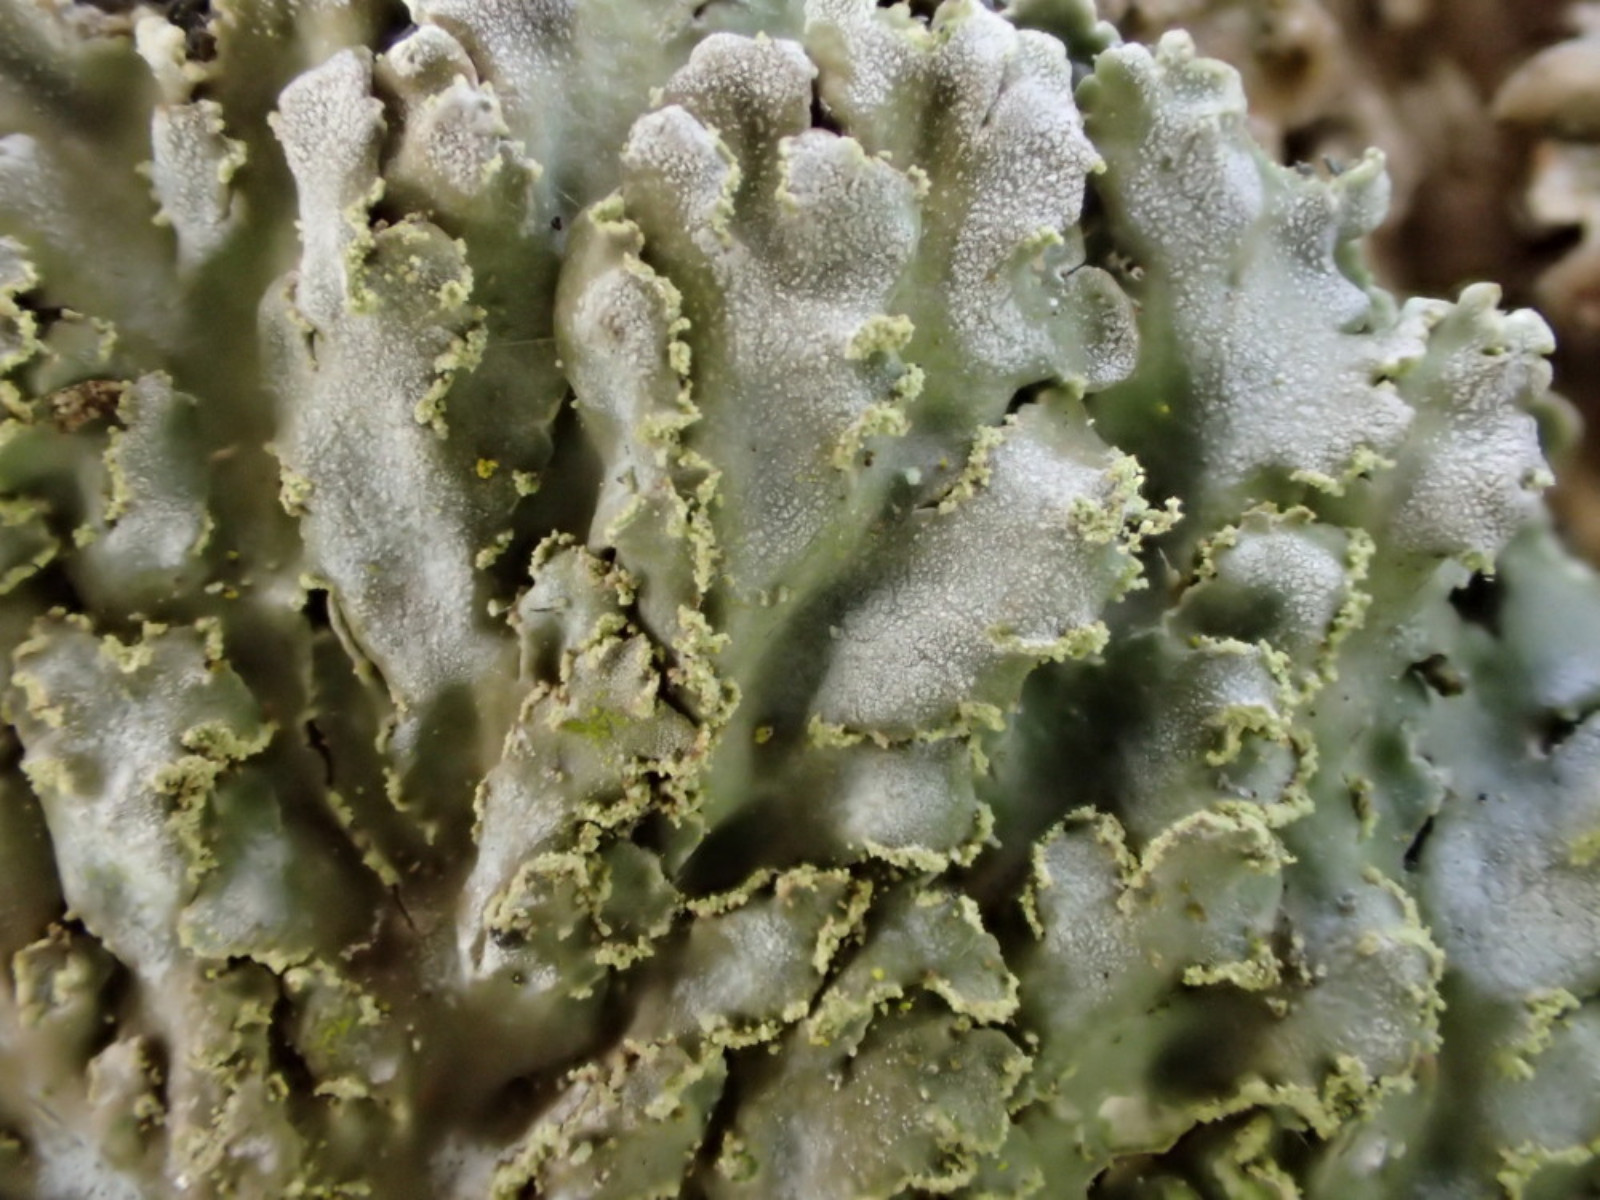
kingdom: Fungi
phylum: Ascomycota
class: Lecanoromycetes
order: Caliciales
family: Physciaceae
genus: Physconia
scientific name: Physconia perisidiosa
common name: liden dugrosetlav
